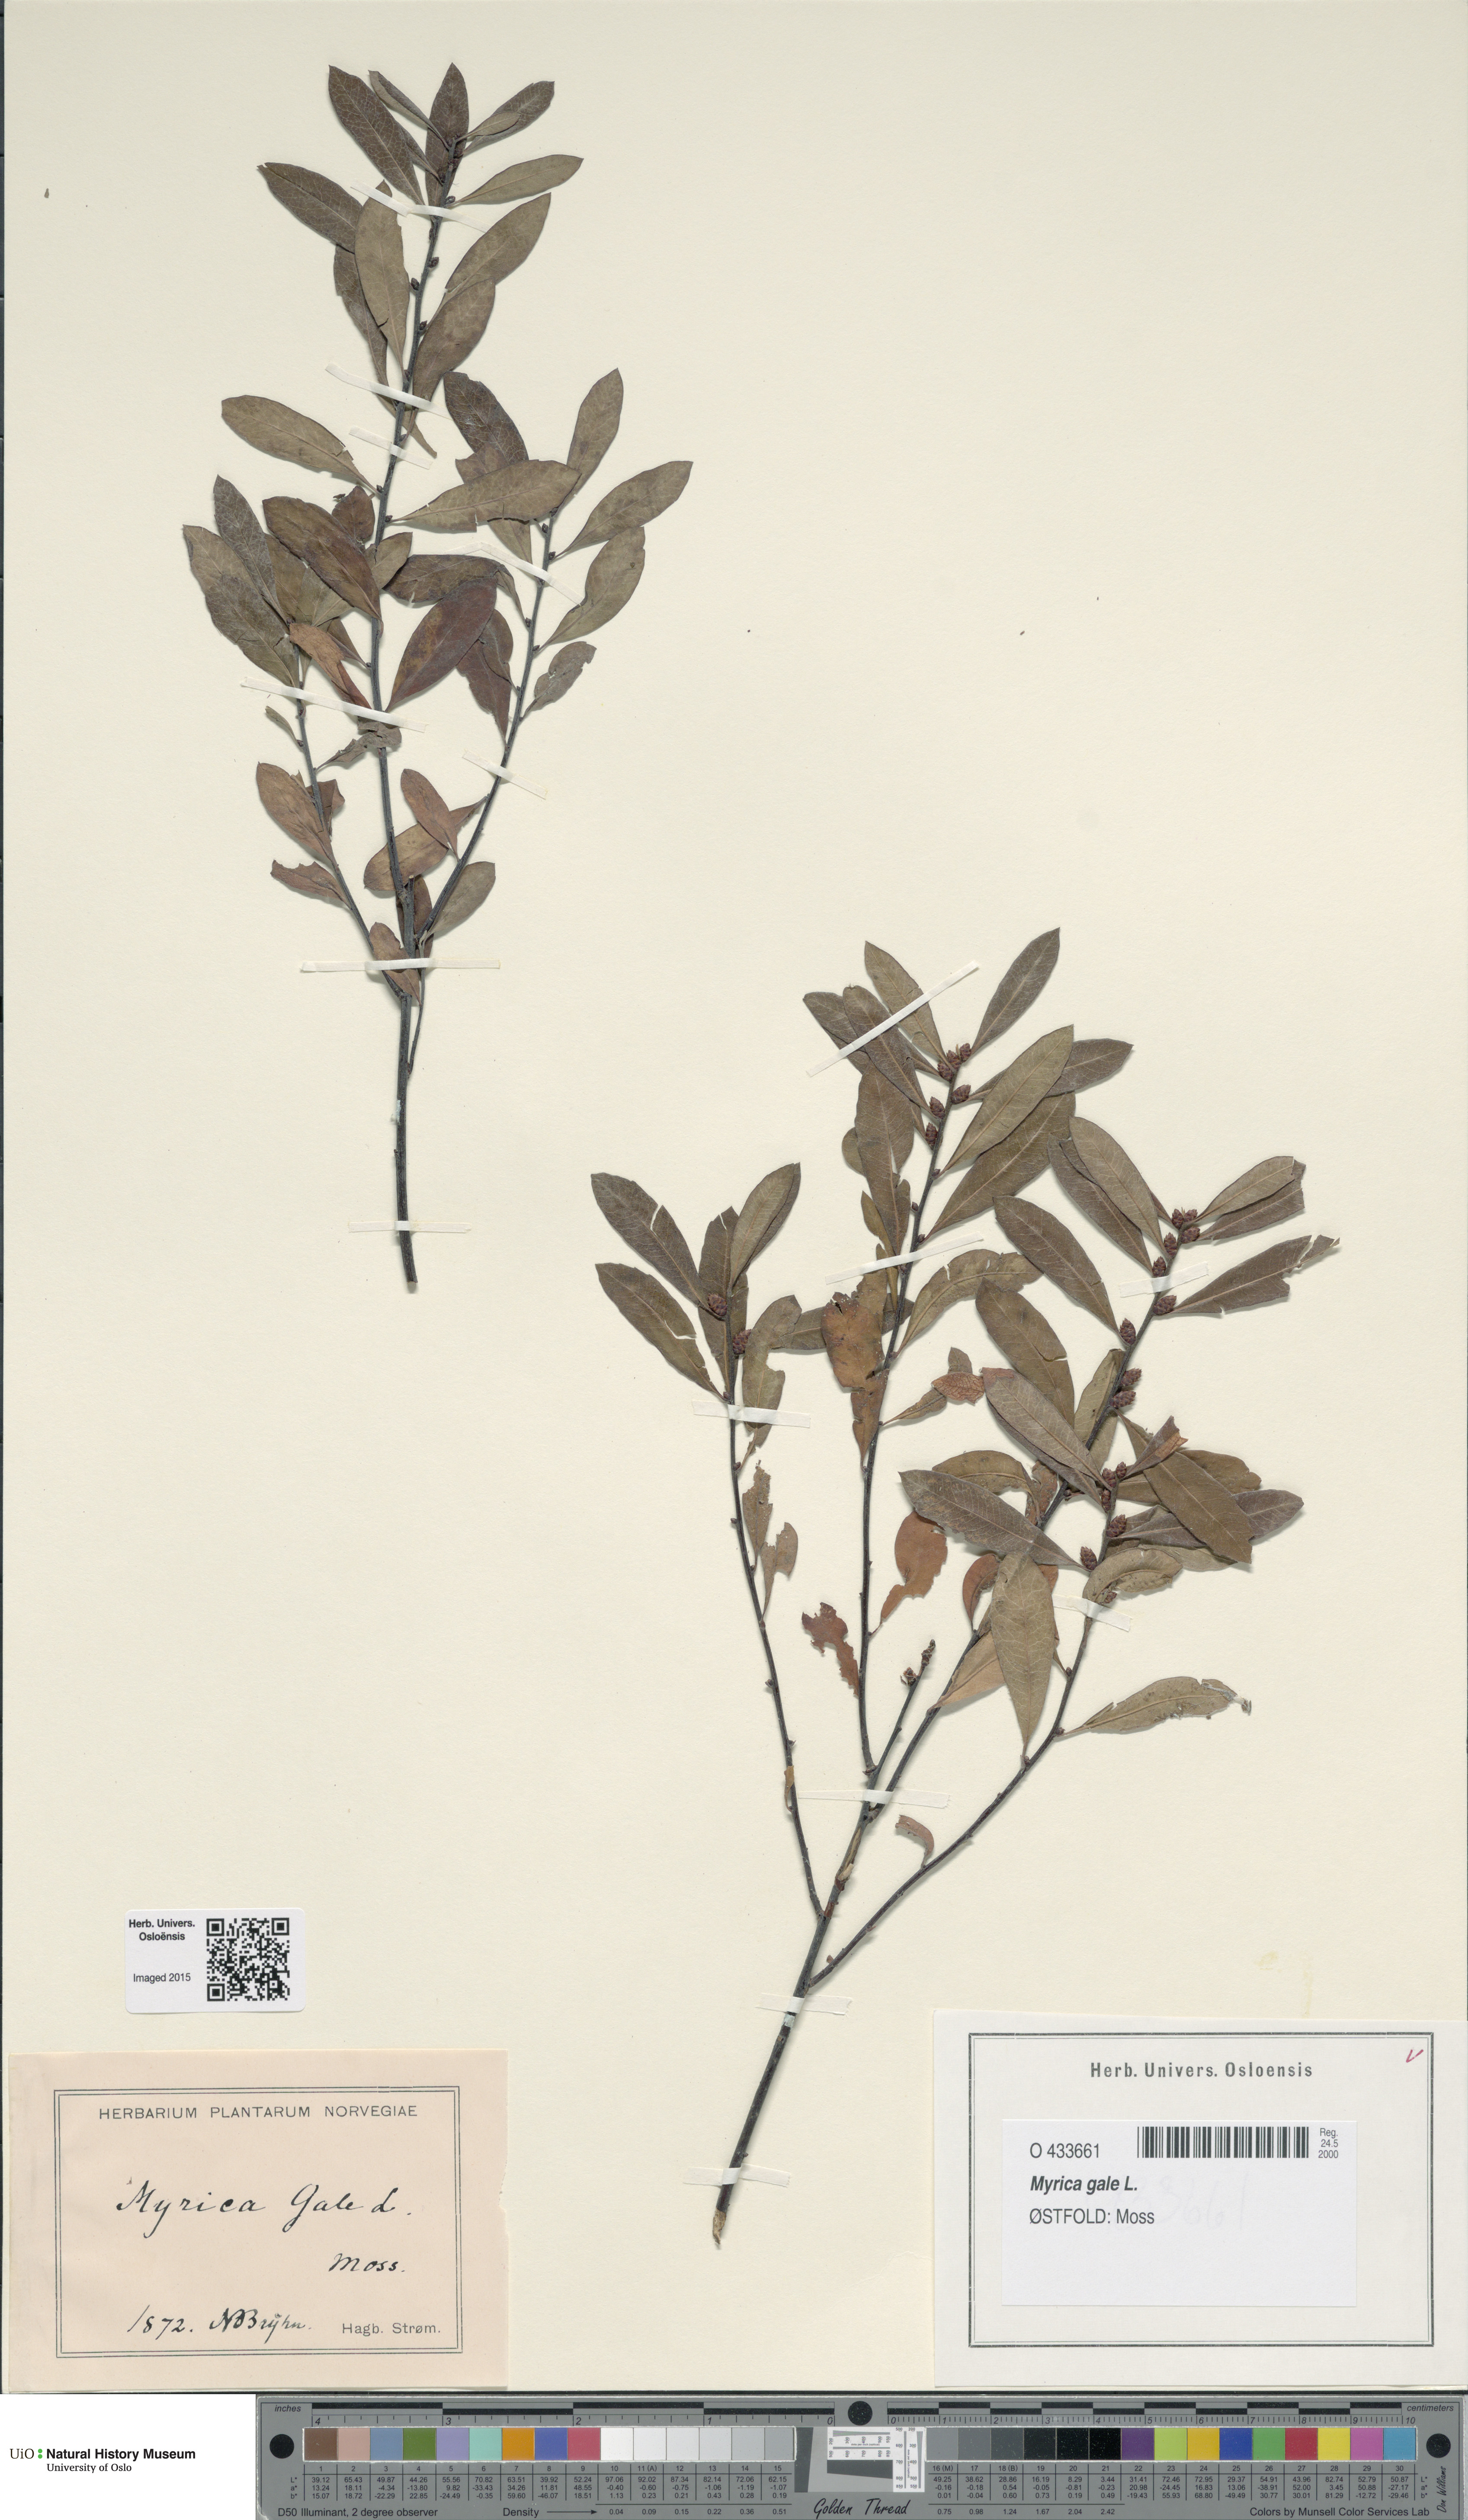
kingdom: Plantae
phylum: Tracheophyta
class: Magnoliopsida
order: Fagales
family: Myricaceae
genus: Myrica
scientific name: Myrica gale
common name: Sweet gale
